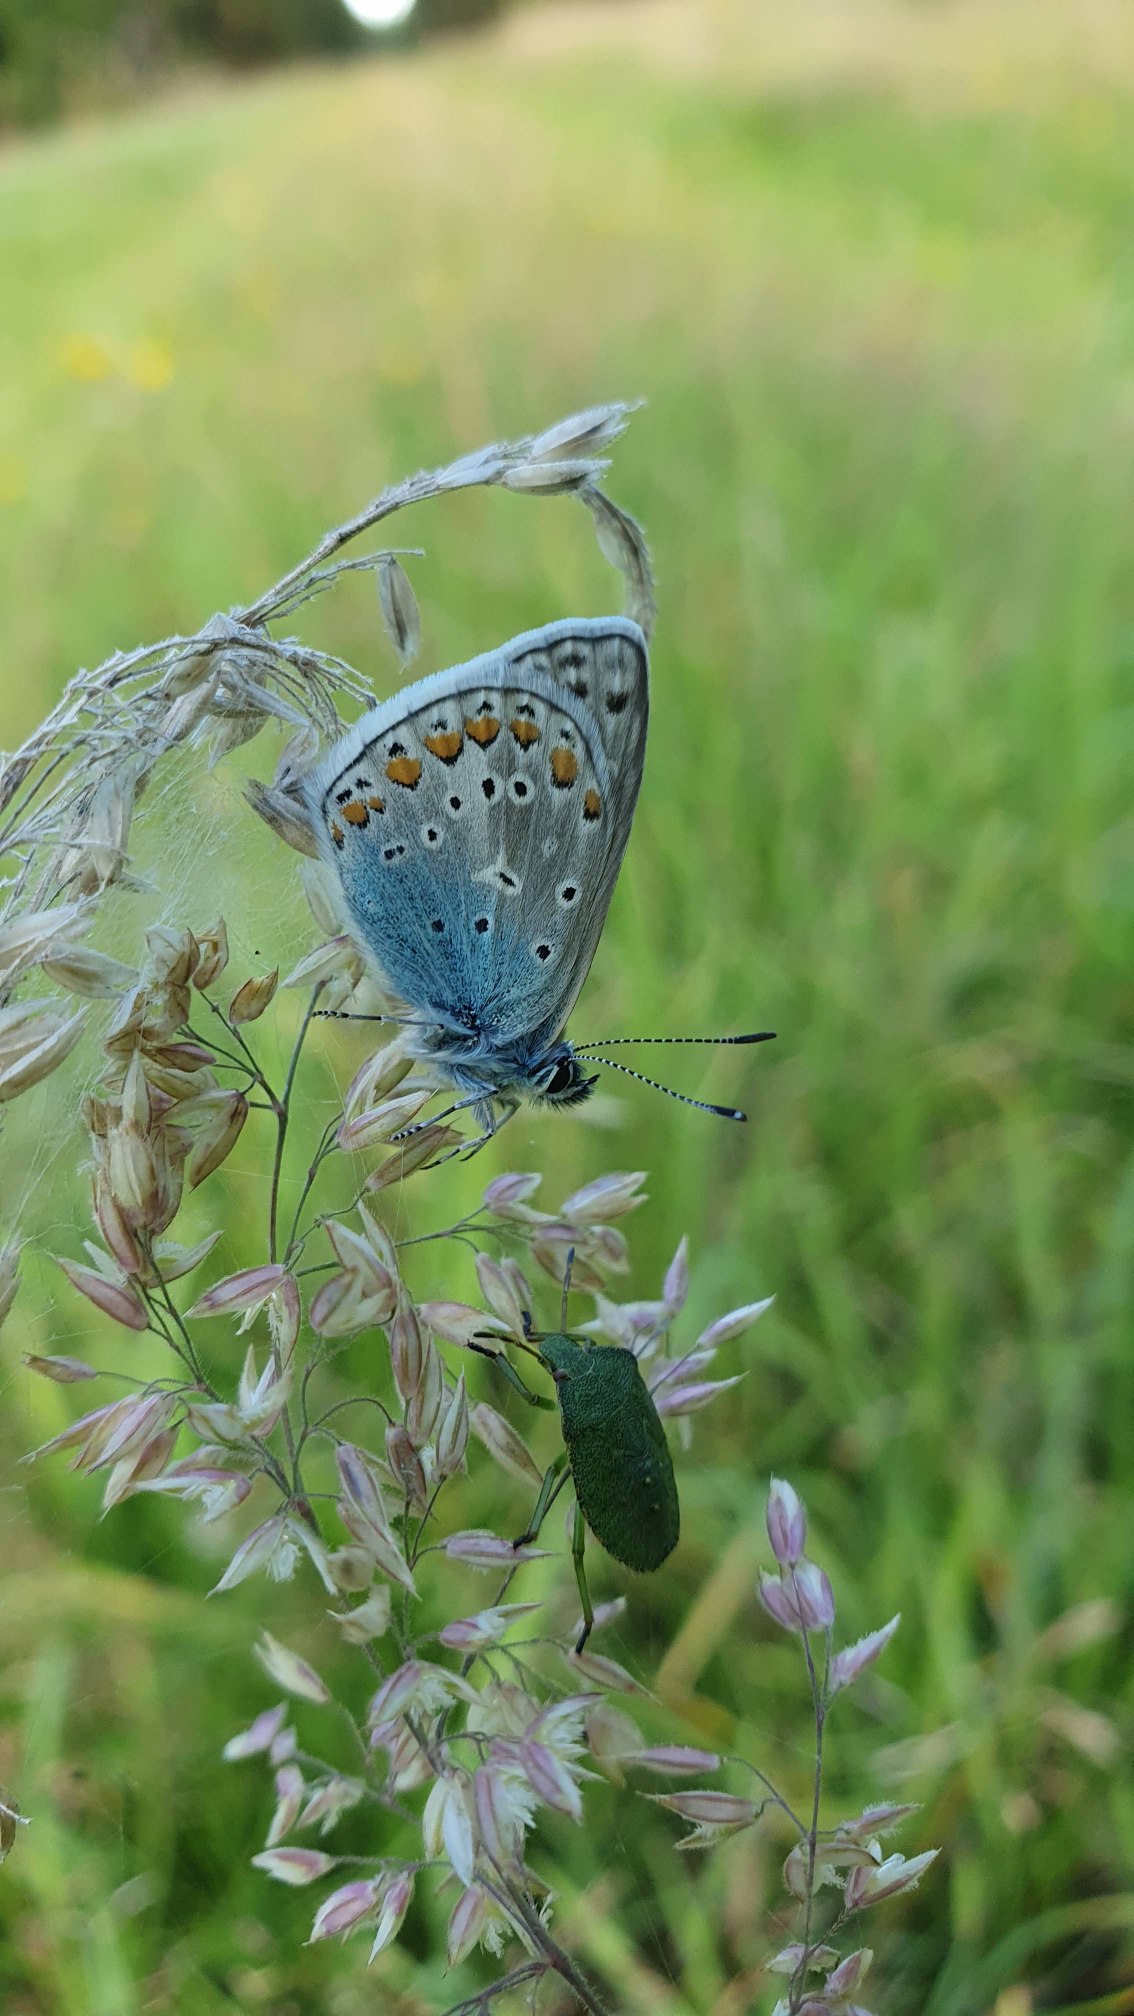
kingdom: Animalia
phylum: Arthropoda
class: Insecta
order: Lepidoptera
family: Lycaenidae
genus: Polyommatus
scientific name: Polyommatus icarus
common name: Almindelig blåfugl
